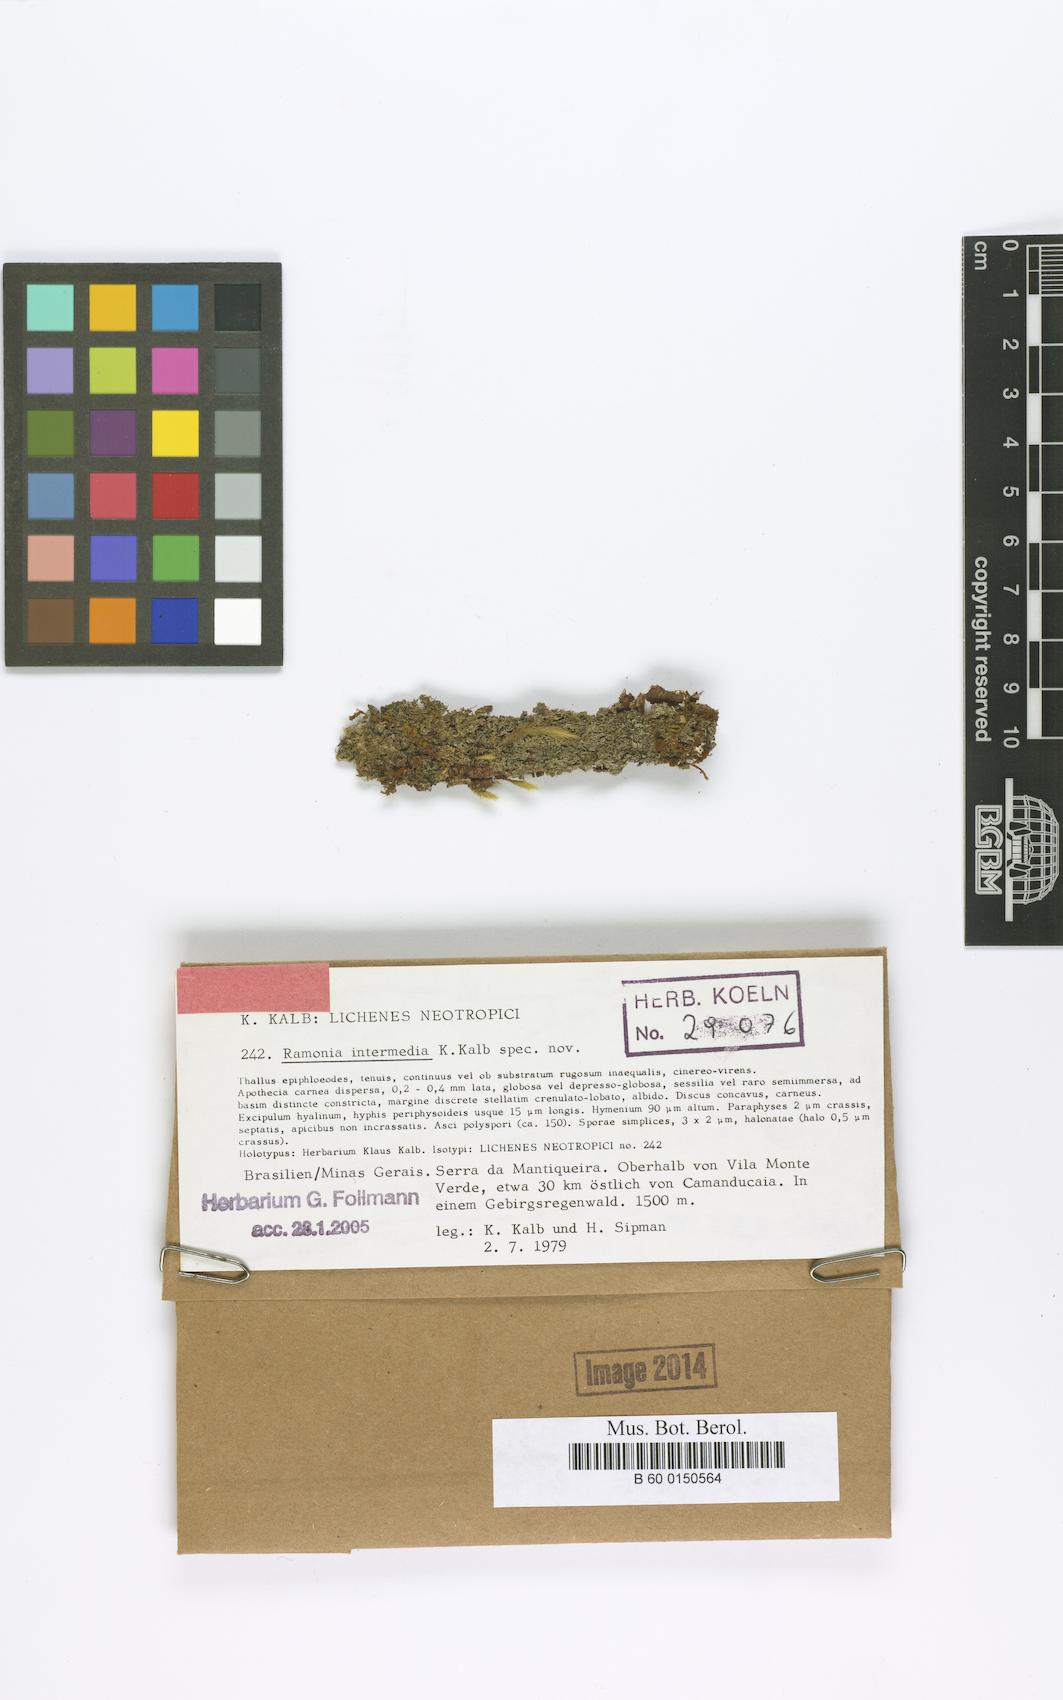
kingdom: Fungi
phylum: Ascomycota
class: Lecanoromycetes
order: Gyalectales
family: Gyalectaceae
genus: Ramonia
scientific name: Ramonia intermedia
